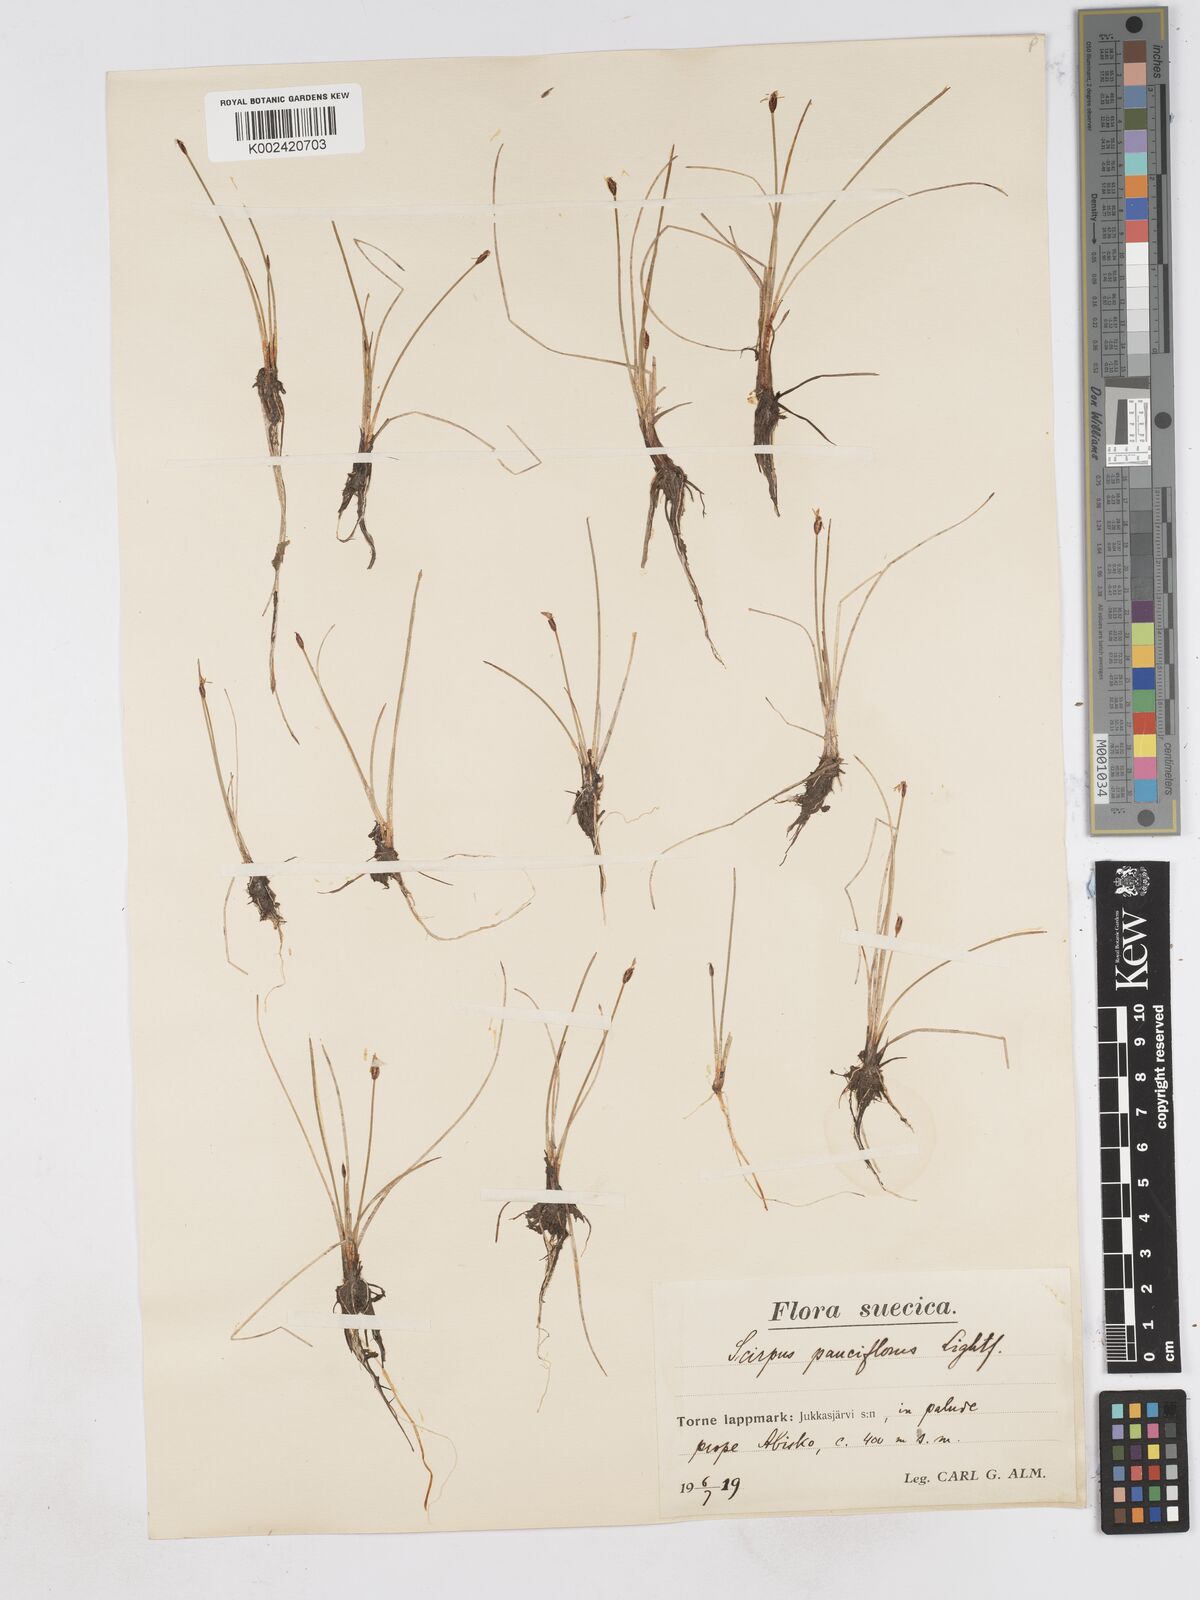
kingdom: Plantae
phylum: Tracheophyta
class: Liliopsida
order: Poales
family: Cyperaceae
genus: Eleocharis
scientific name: Eleocharis quinqueflora
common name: Few-flowered spike-rush
